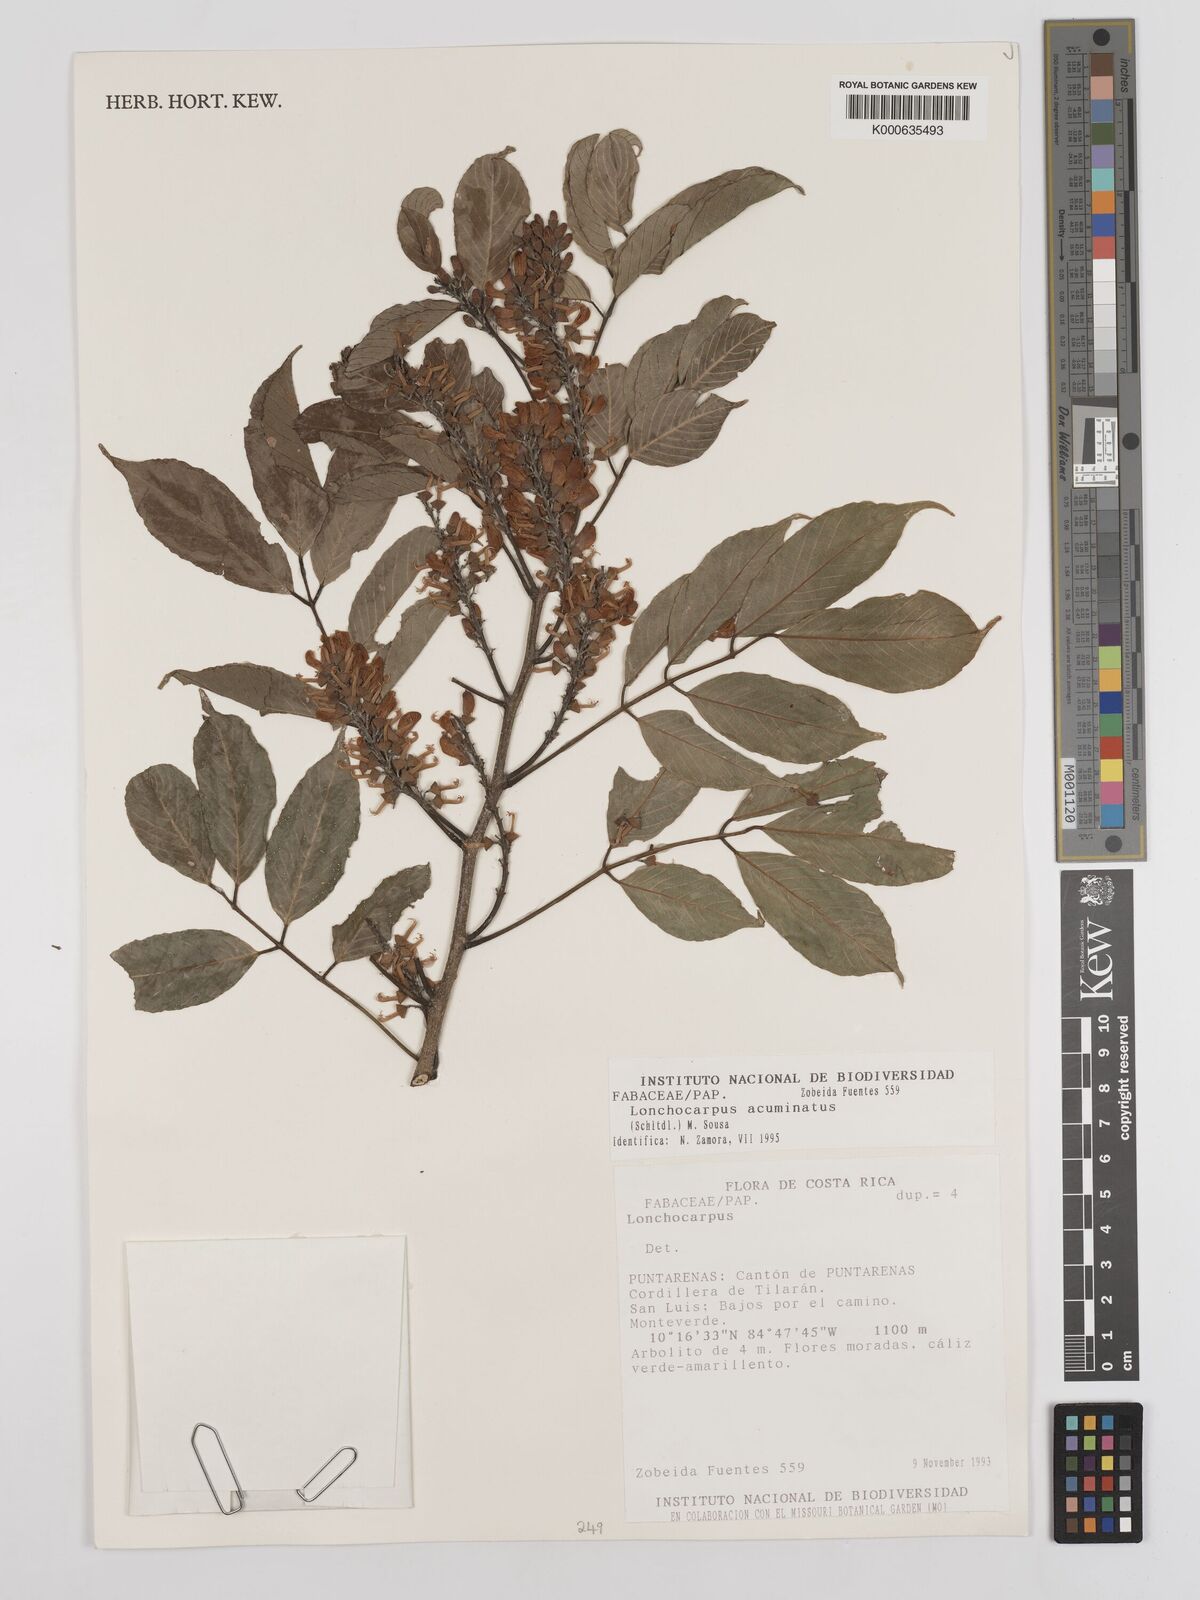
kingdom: Plantae
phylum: Tracheophyta
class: Magnoliopsida
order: Fabales
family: Fabaceae
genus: Lonchocarpus
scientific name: Lonchocarpus acuminatus
